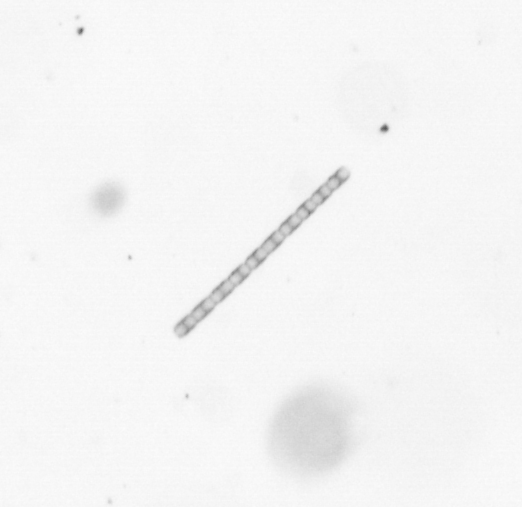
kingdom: Chromista
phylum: Ochrophyta
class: Bacillariophyceae
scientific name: Bacillariophyceae
